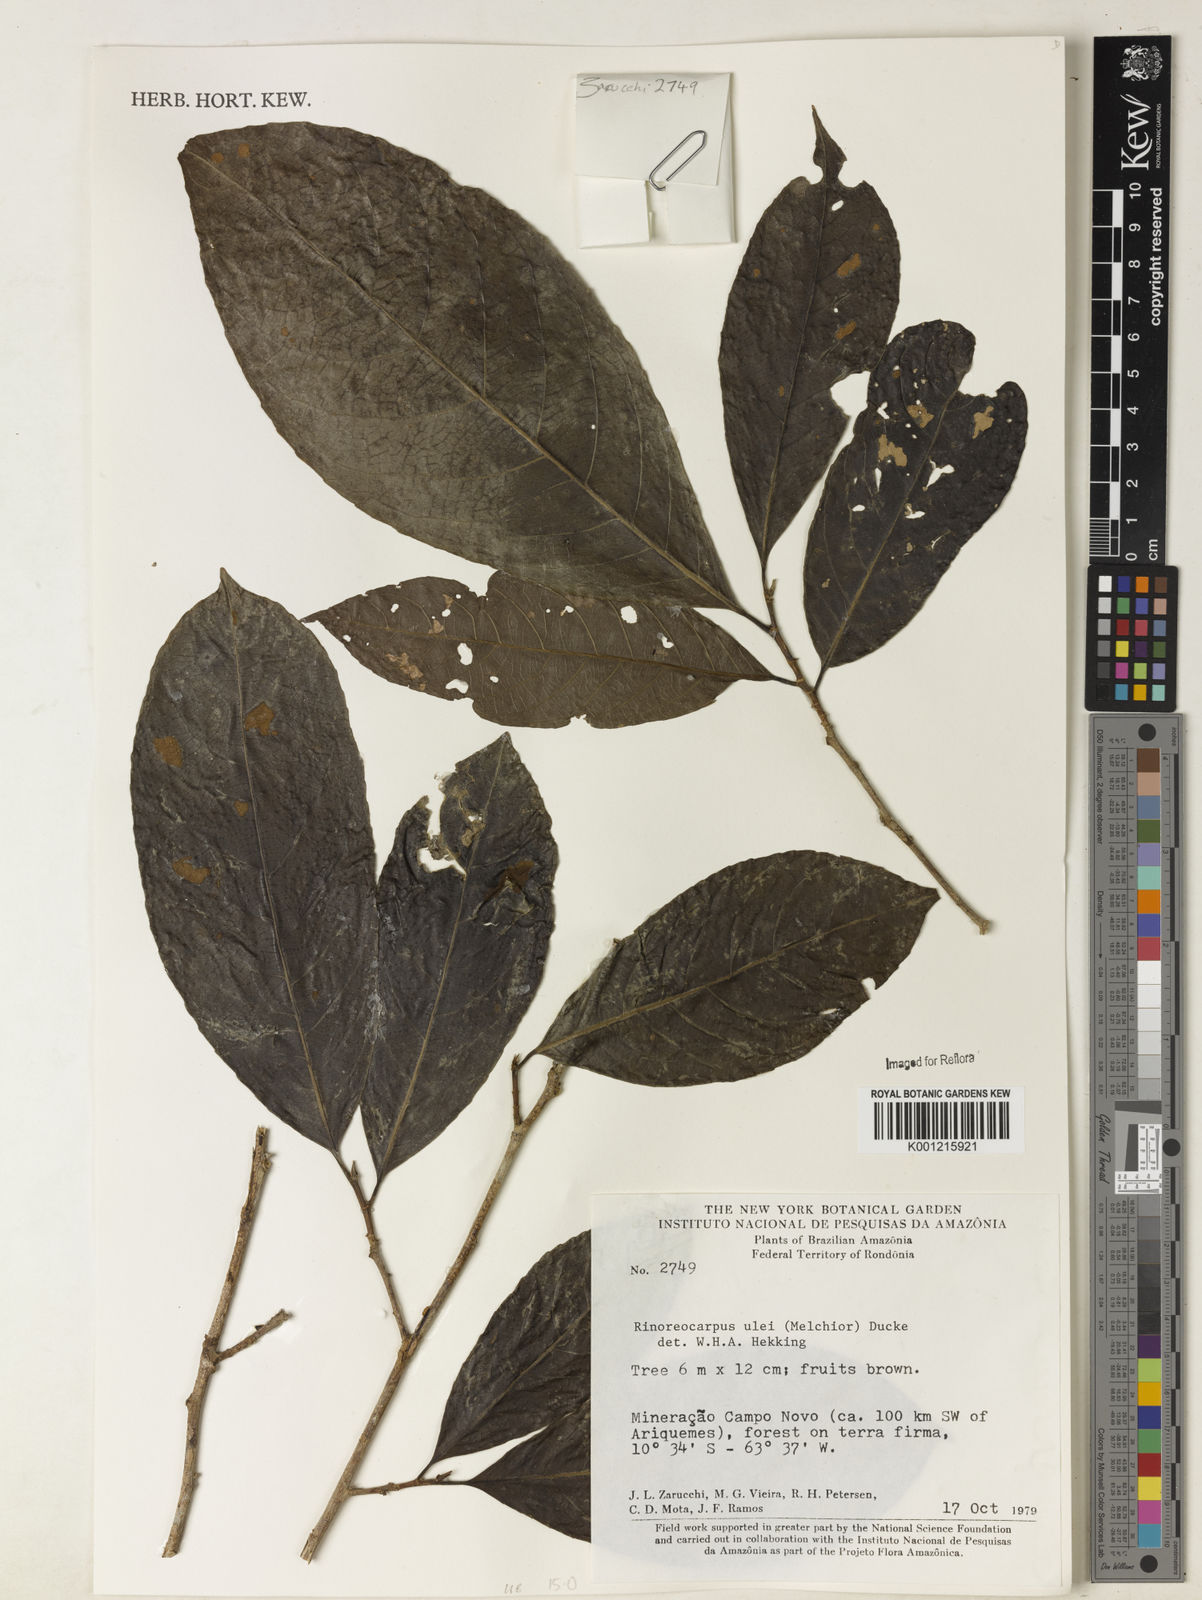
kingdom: Plantae
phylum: Tracheophyta
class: Magnoliopsida
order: Malpighiales
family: Violaceae
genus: Rinorea
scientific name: Rinorea
